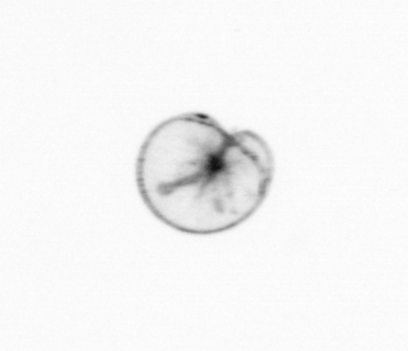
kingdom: Chromista
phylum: Myzozoa
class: Dinophyceae
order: Noctilucales
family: Noctilucaceae
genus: Noctiluca
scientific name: Noctiluca scintillans
